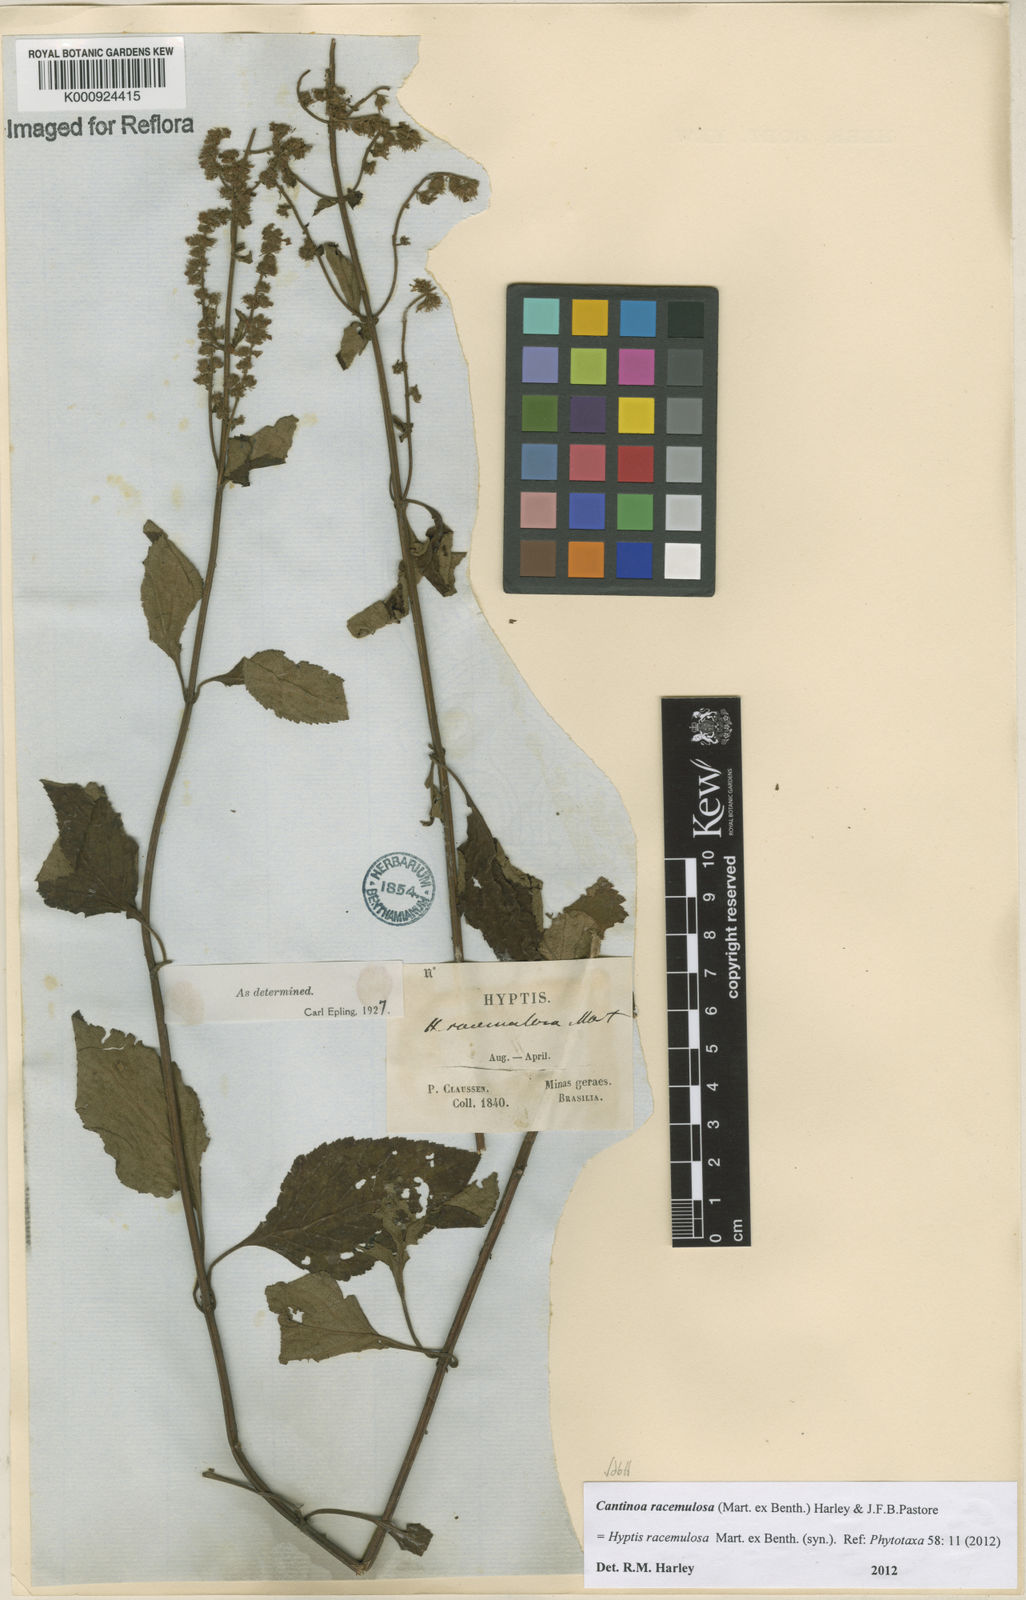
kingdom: Plantae
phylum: Tracheophyta
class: Magnoliopsida
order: Lamiales
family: Lamiaceae
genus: Cantinoa
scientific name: Cantinoa racemulosa
